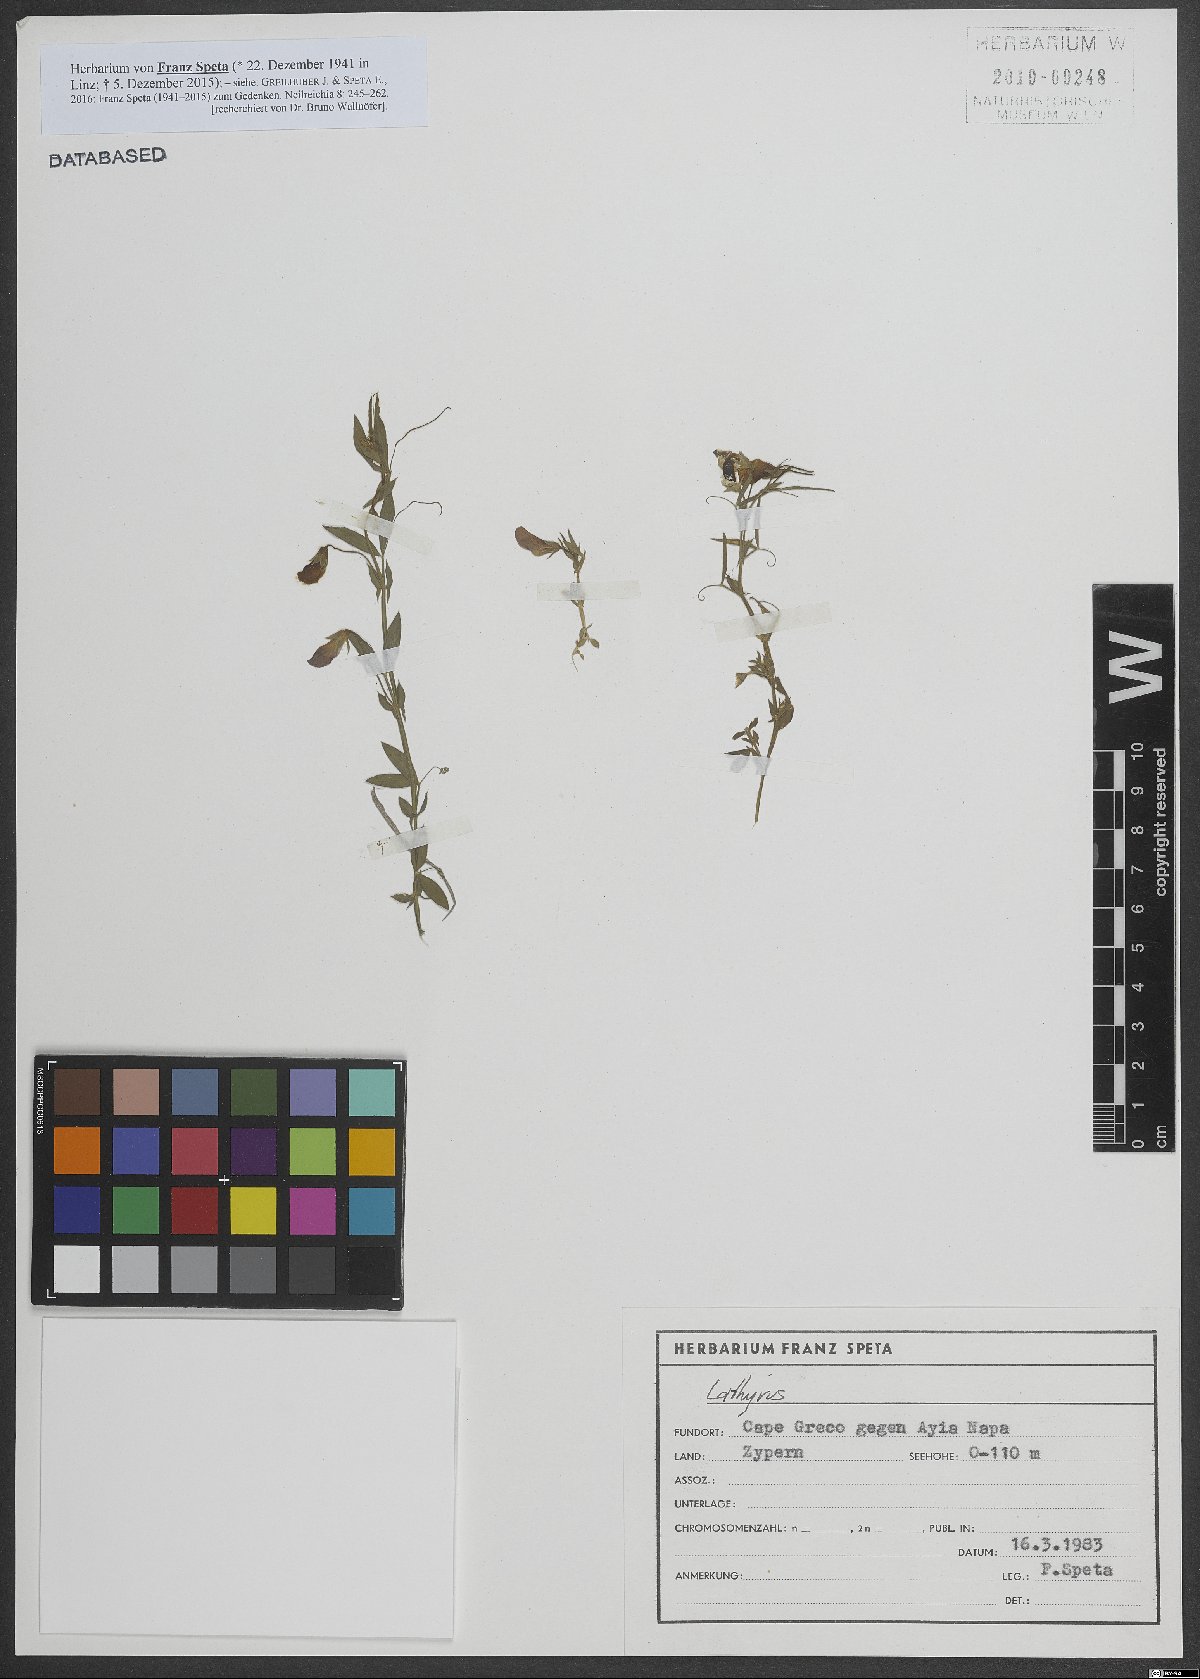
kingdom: Plantae
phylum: Tracheophyta
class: Magnoliopsida
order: Fabales
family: Fabaceae
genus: Lathyrus
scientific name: Lathyrus
